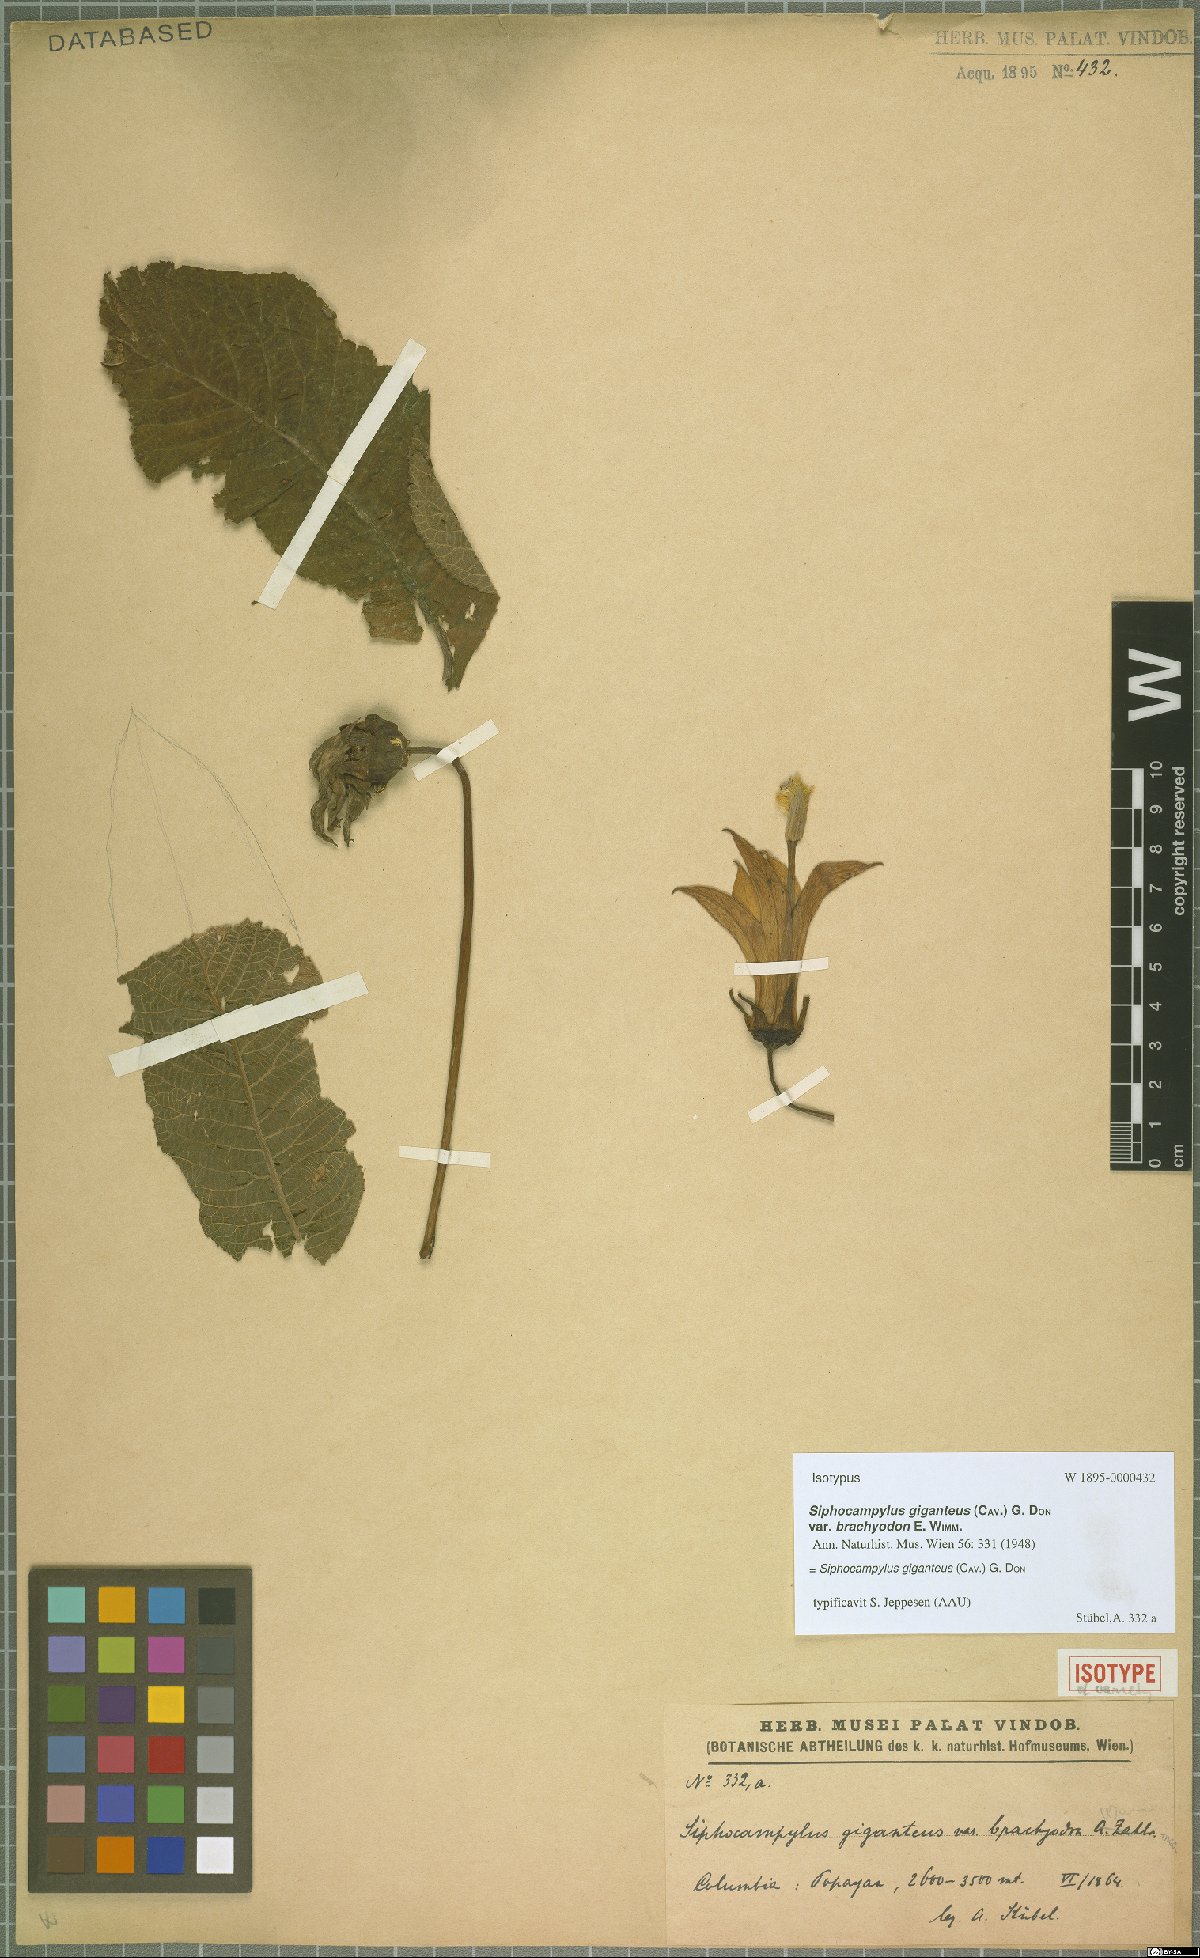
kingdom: Plantae
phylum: Tracheophyta
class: Magnoliopsida
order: Asterales
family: Campanulaceae
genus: Siphocampylus
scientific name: Siphocampylus giganteus
